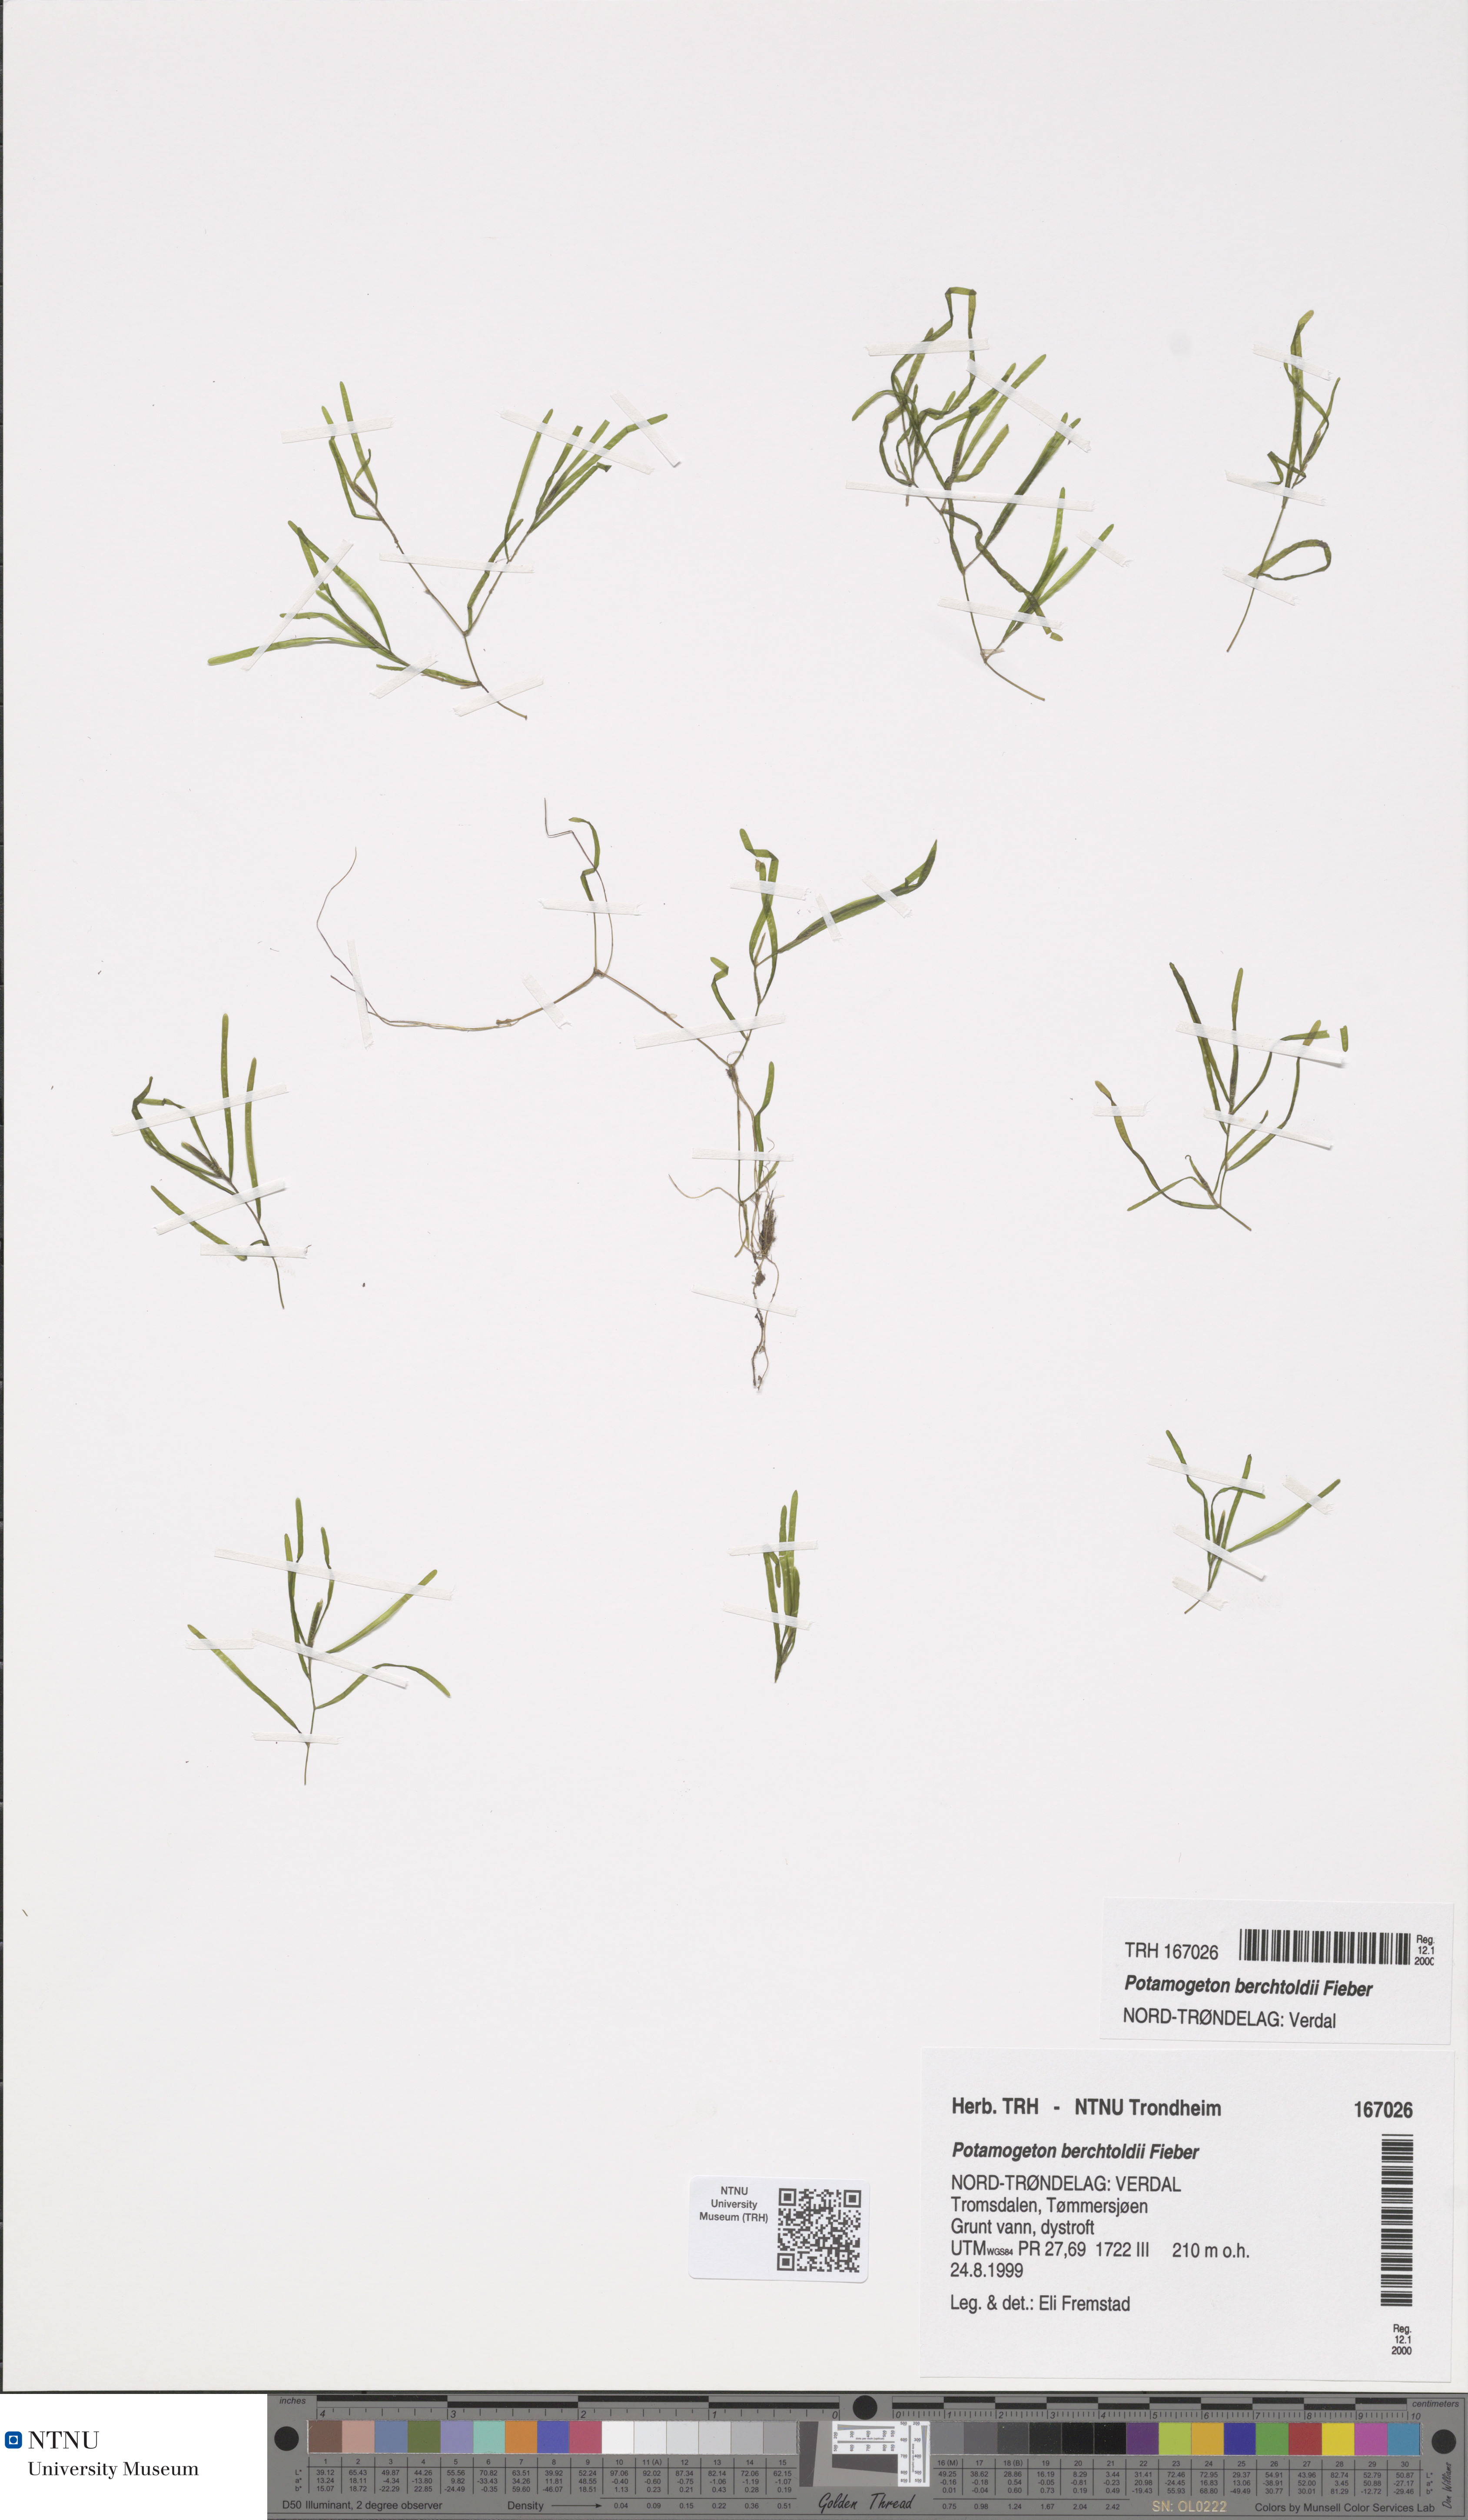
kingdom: Plantae
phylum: Tracheophyta
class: Liliopsida
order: Alismatales
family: Potamogetonaceae
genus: Potamogeton
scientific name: Potamogeton berchtoldii
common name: Small pondweed
